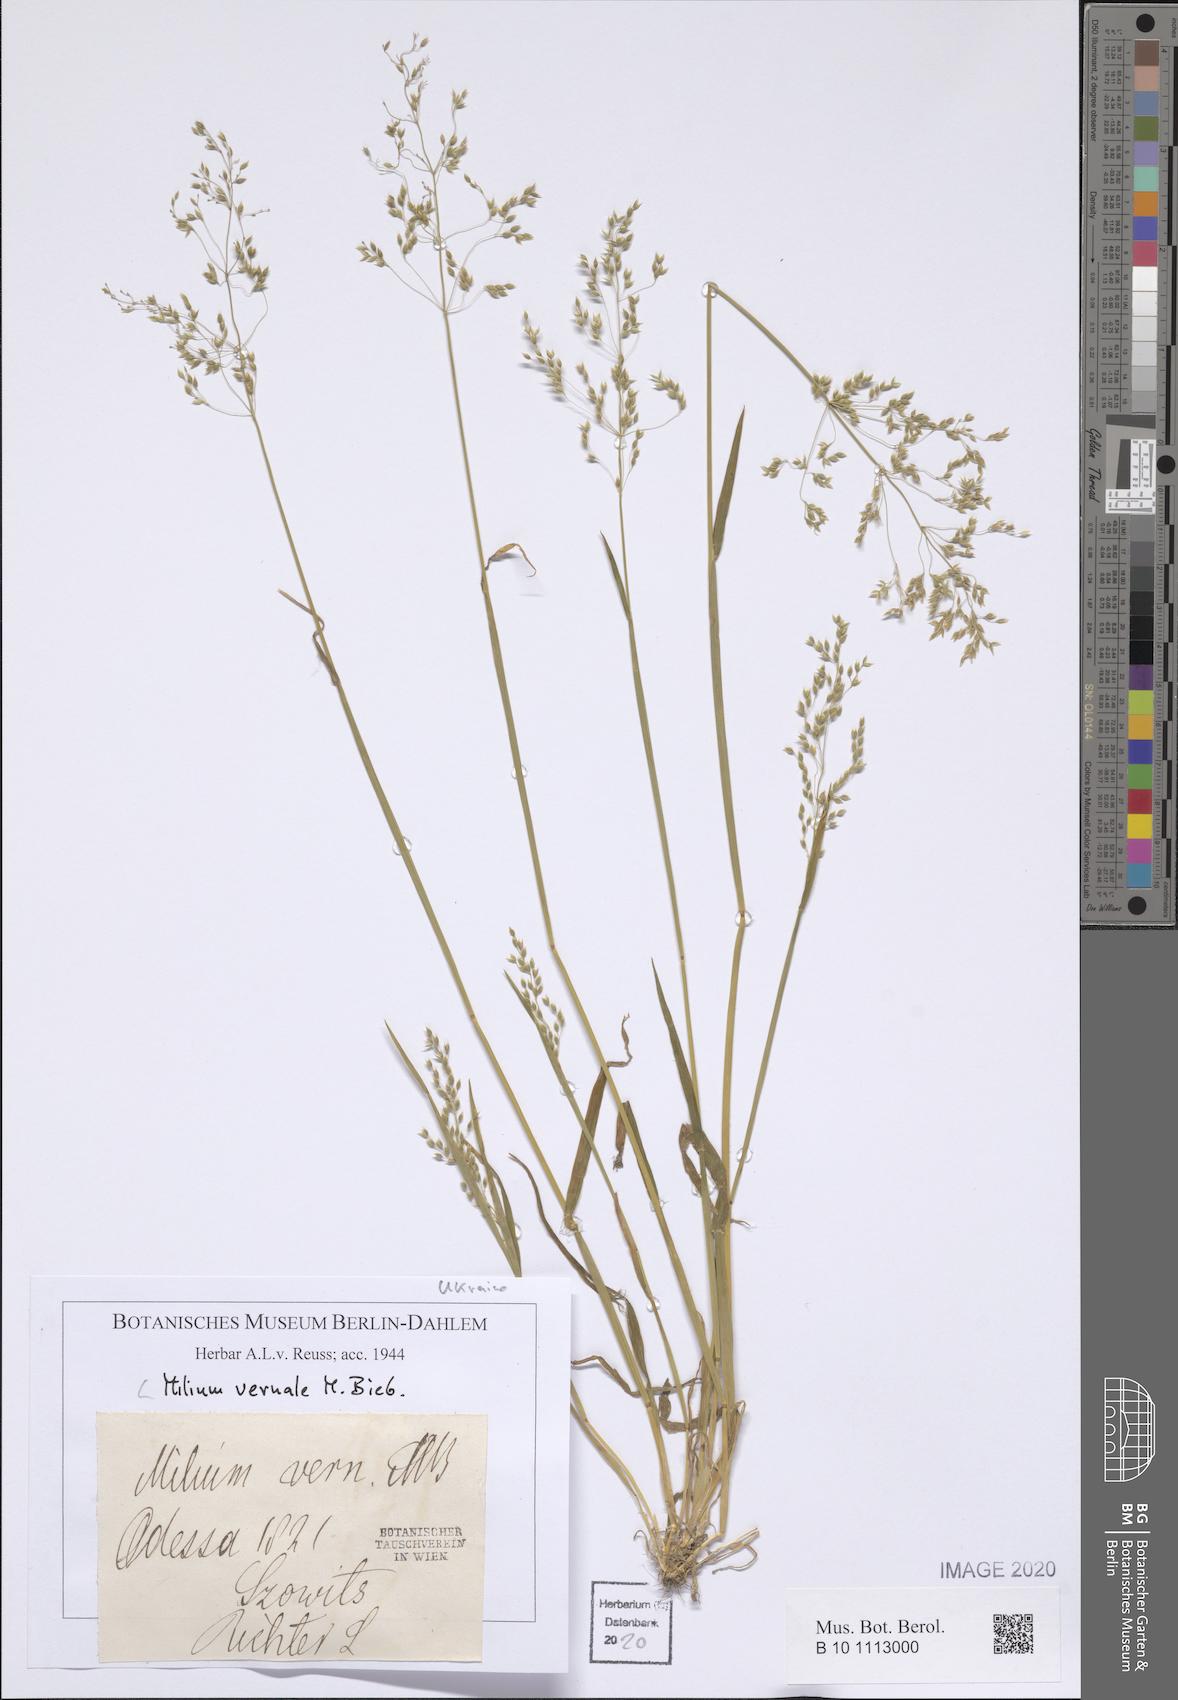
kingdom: Plantae
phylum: Tracheophyta
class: Liliopsida
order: Poales
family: Poaceae
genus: Milium
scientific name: Milium vernale
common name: Early millet
